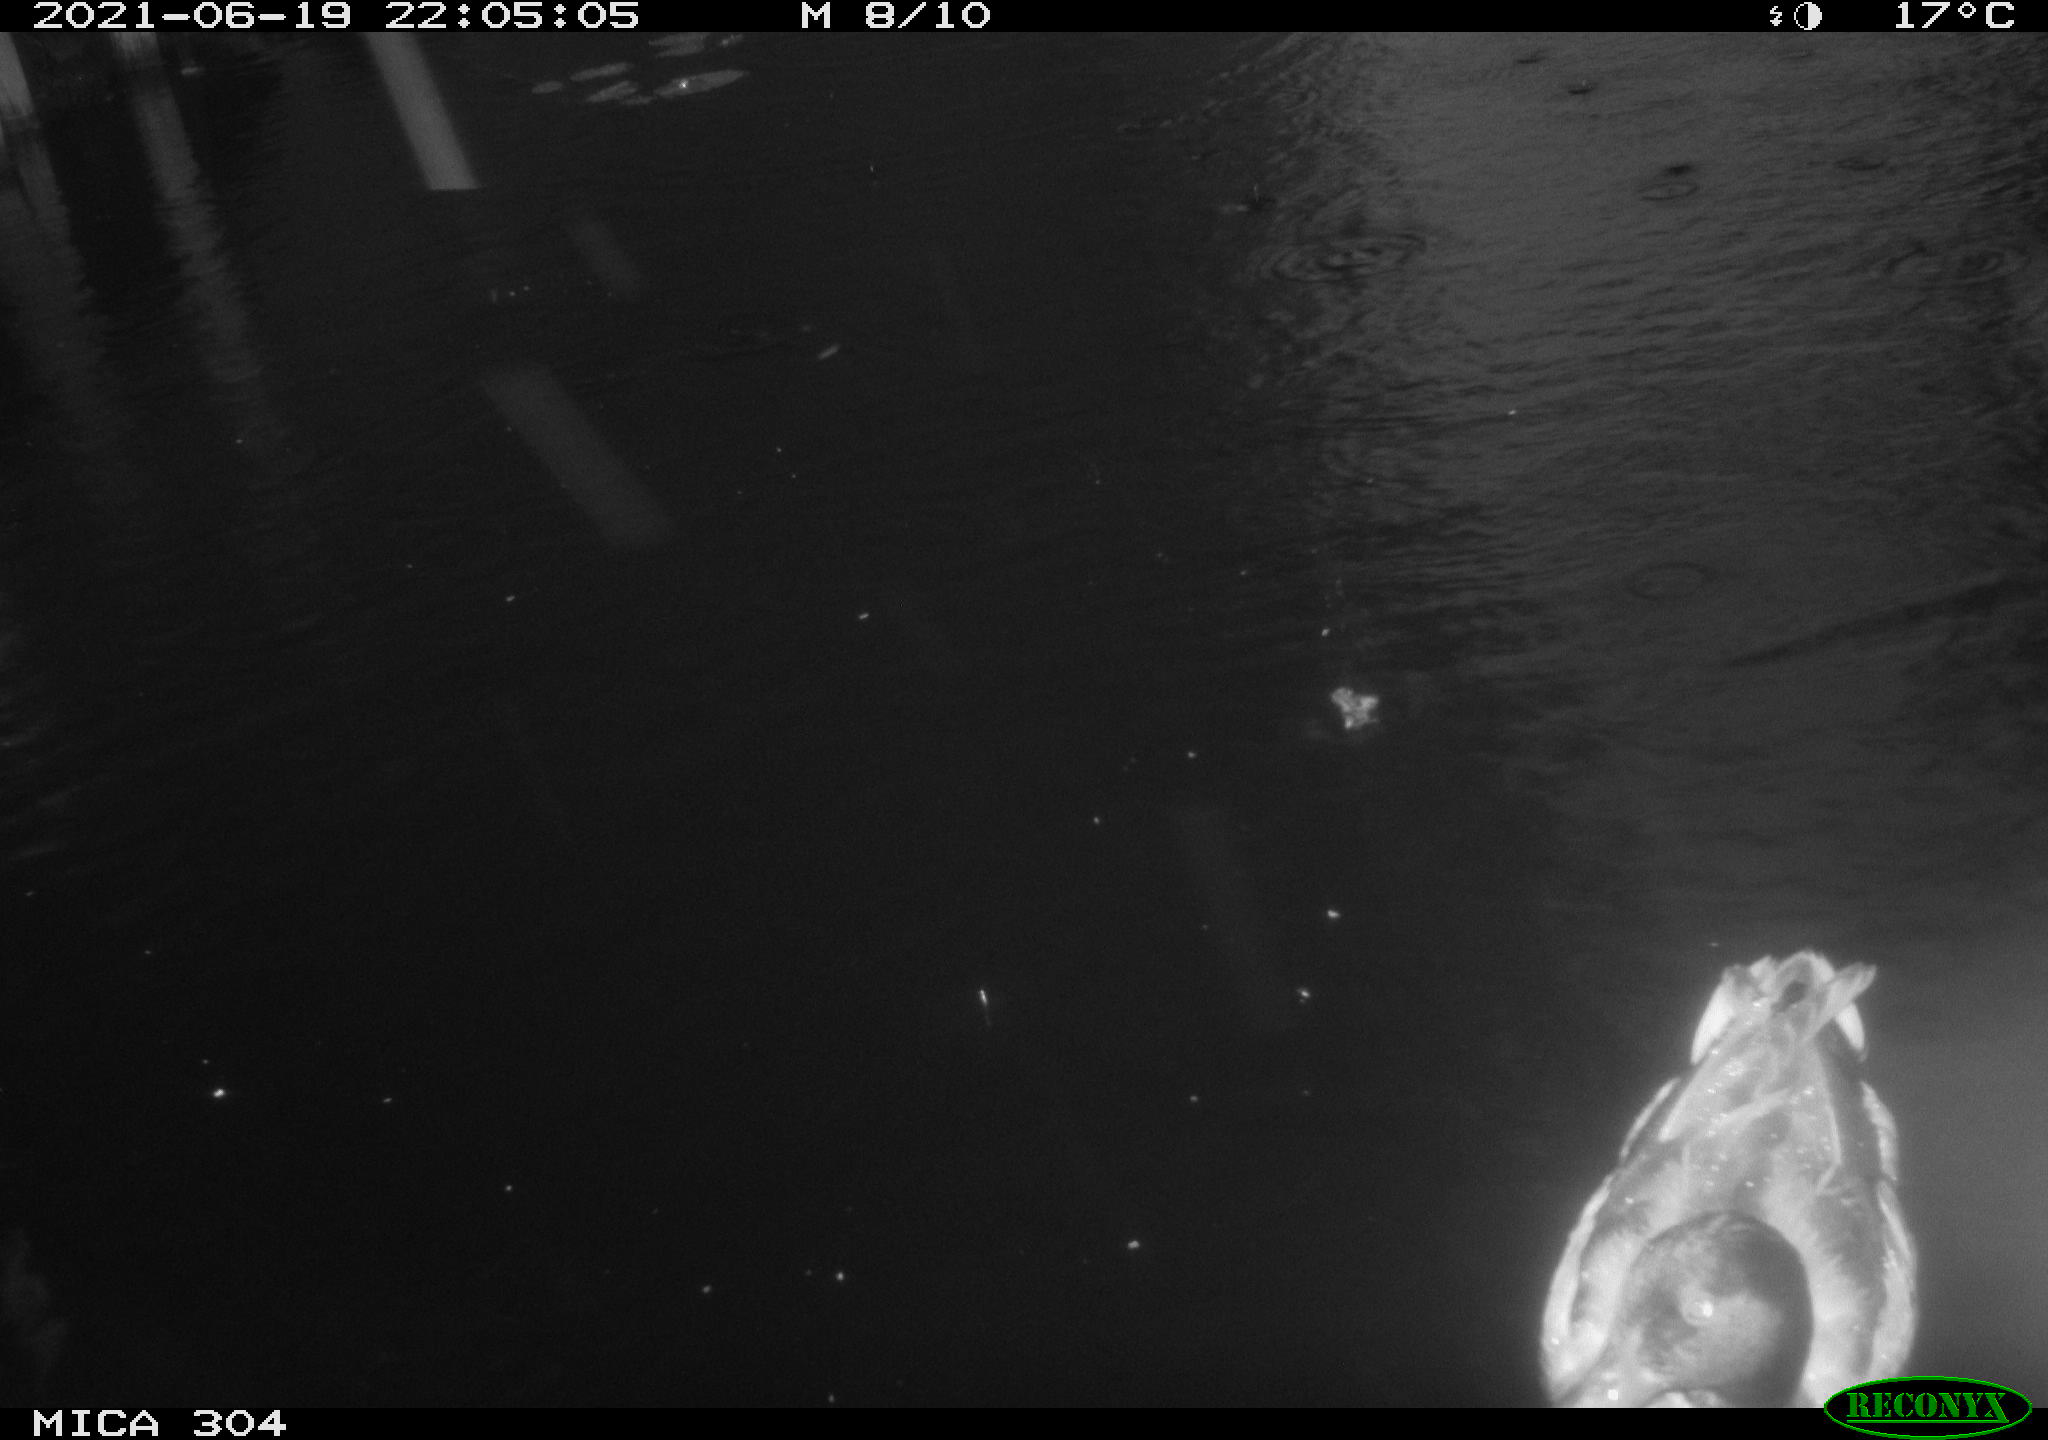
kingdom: Animalia
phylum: Chordata
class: Aves
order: Anseriformes
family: Anatidae
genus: Anas
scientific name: Anas platyrhynchos
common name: Mallard
